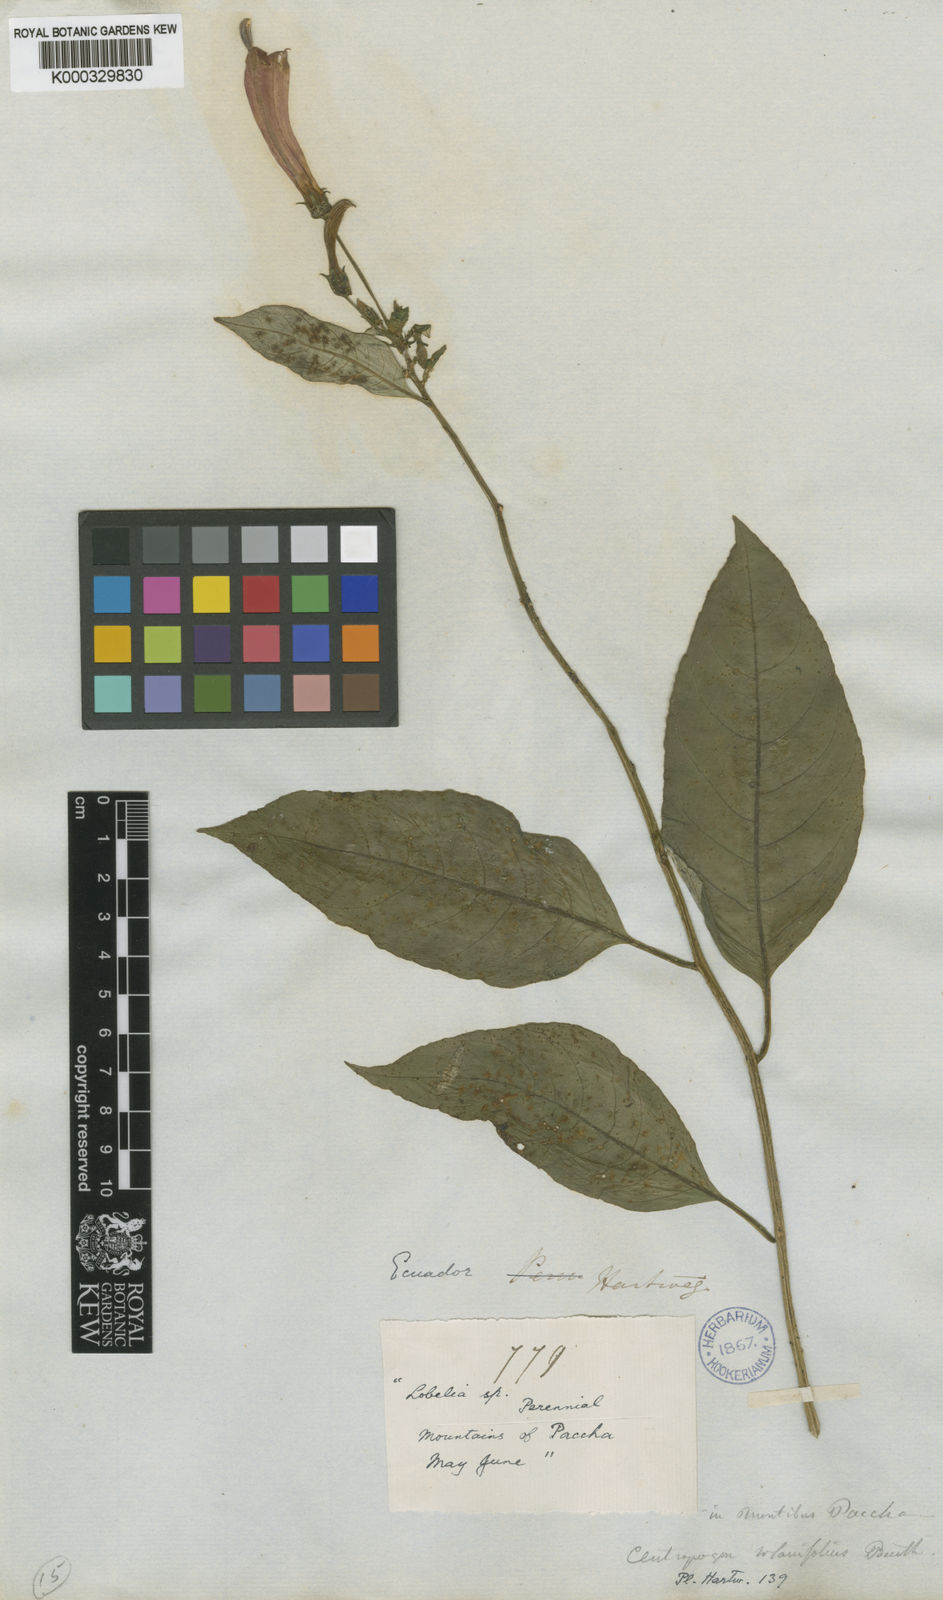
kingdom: Plantae
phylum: Tracheophyta
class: Magnoliopsida
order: Asterales
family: Campanulaceae
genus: Centropogon
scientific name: Centropogon solanifolius
